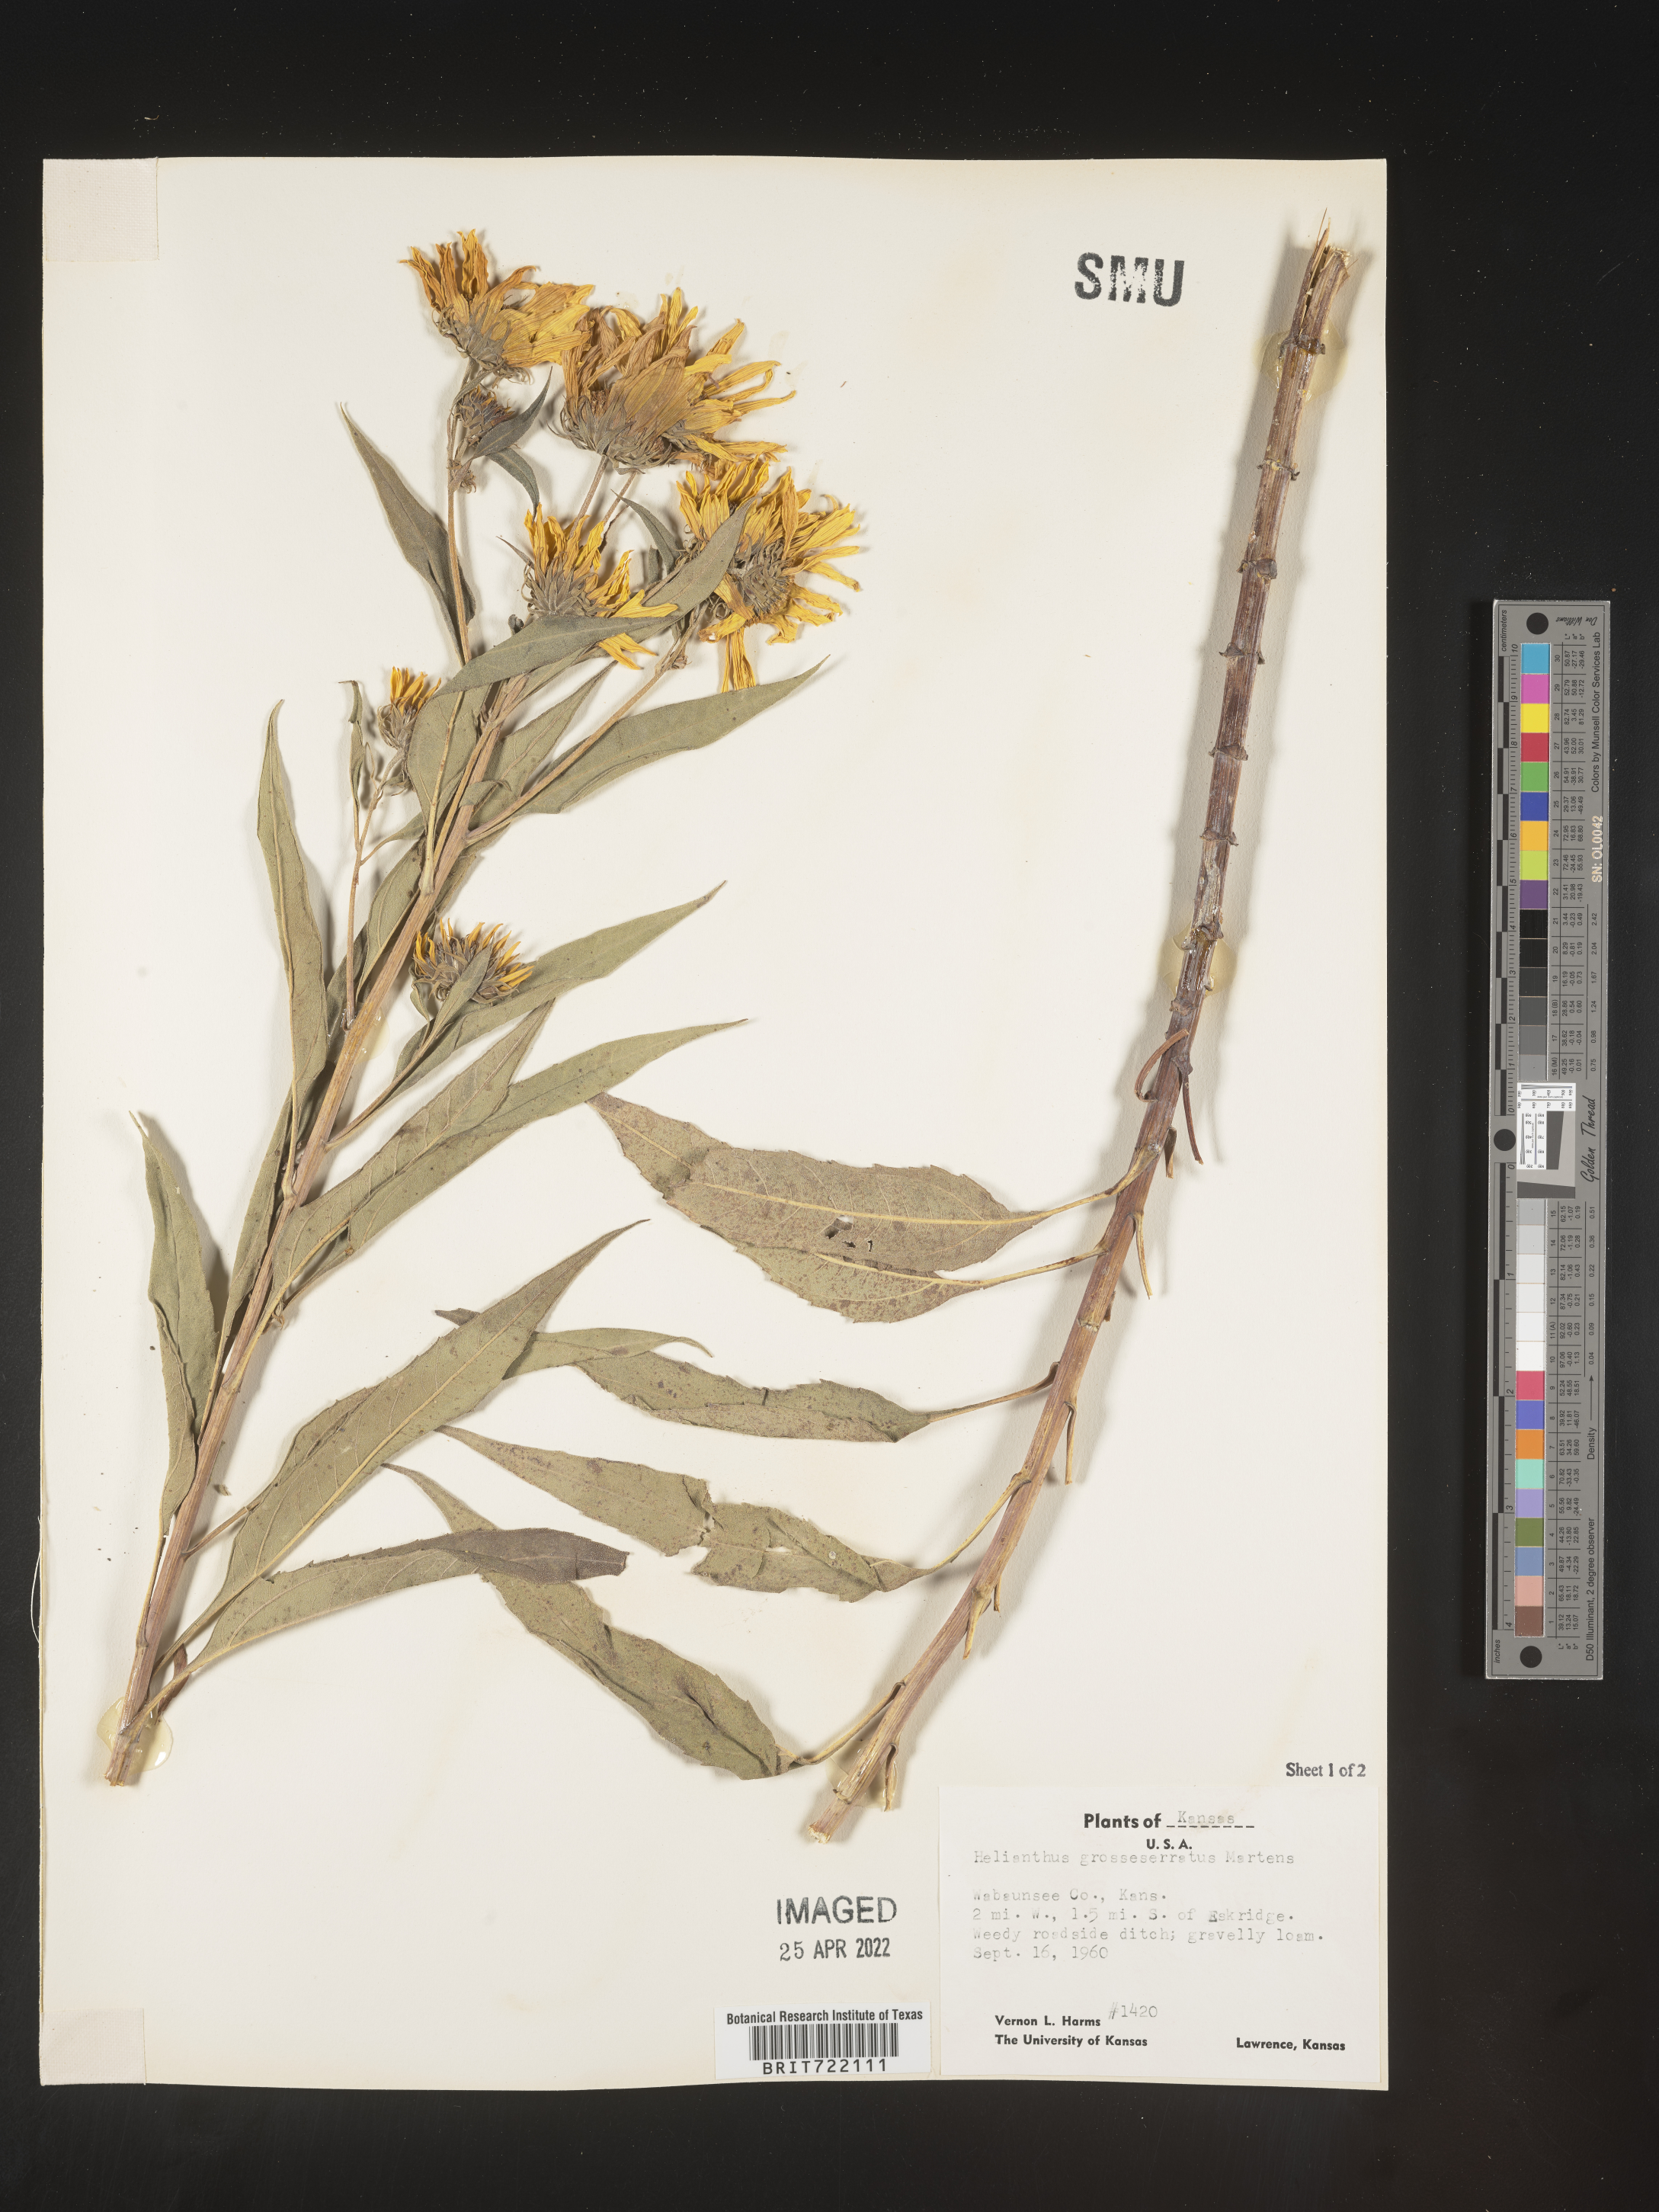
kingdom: Plantae
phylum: Tracheophyta
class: Magnoliopsida
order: Asterales
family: Asteraceae
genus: Helianthus
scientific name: Helianthus grosseserratus
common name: Sawtooth sunflower
